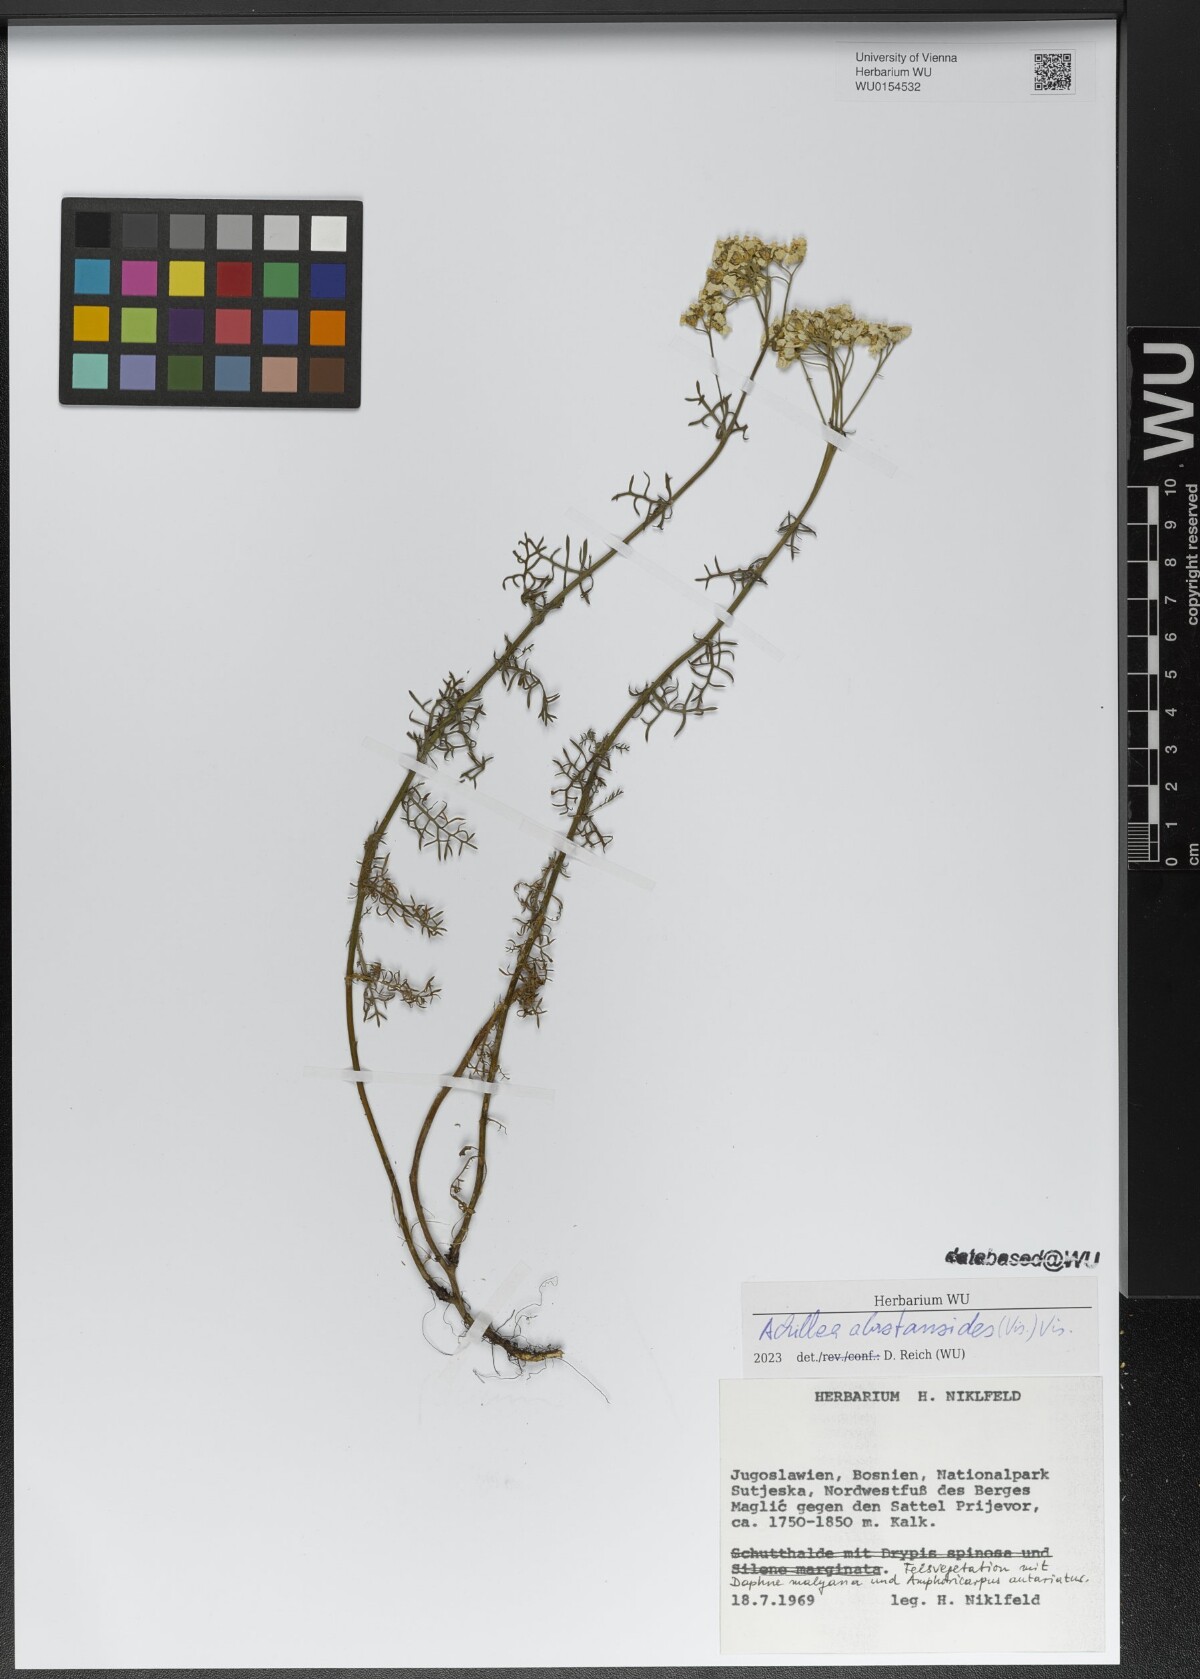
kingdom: Plantae
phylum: Tracheophyta
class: Magnoliopsida
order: Asterales
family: Asteraceae
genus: Achillea
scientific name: Achillea abrotanoides
